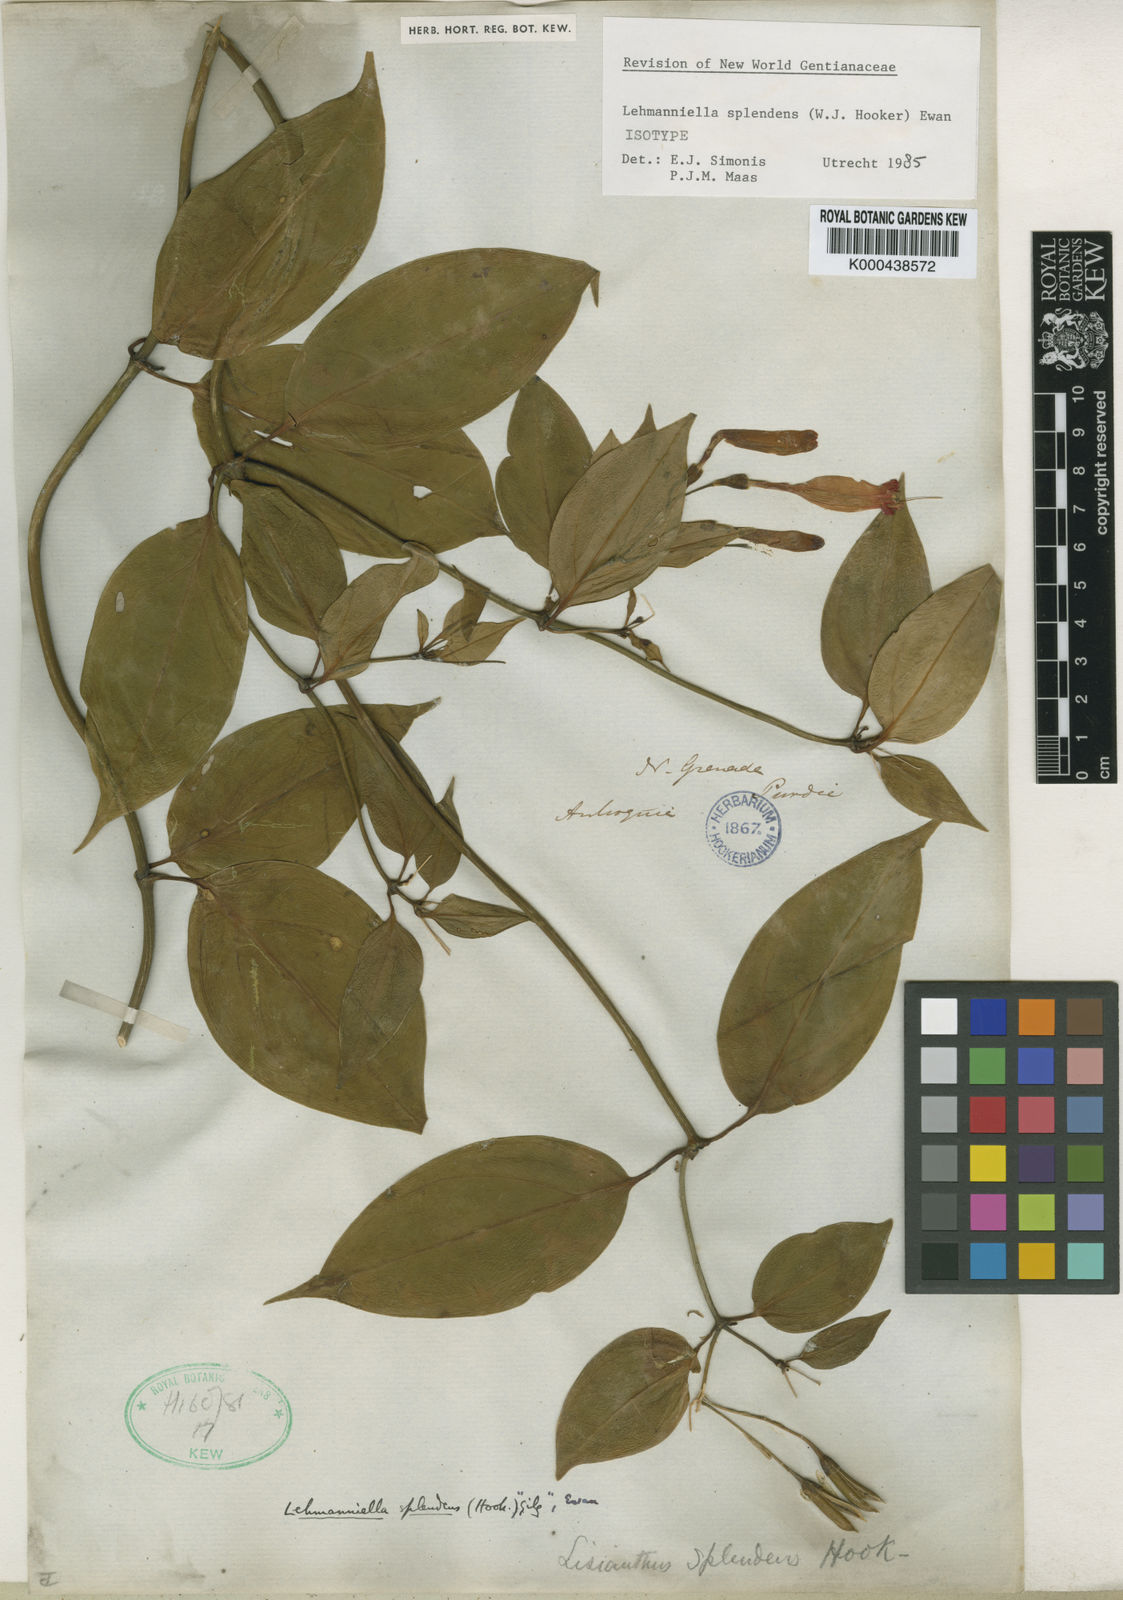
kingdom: Plantae
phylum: Tracheophyta
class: Magnoliopsida
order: Gentianales
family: Gentianaceae
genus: Lehmanniella
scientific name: Lehmanniella splendens
